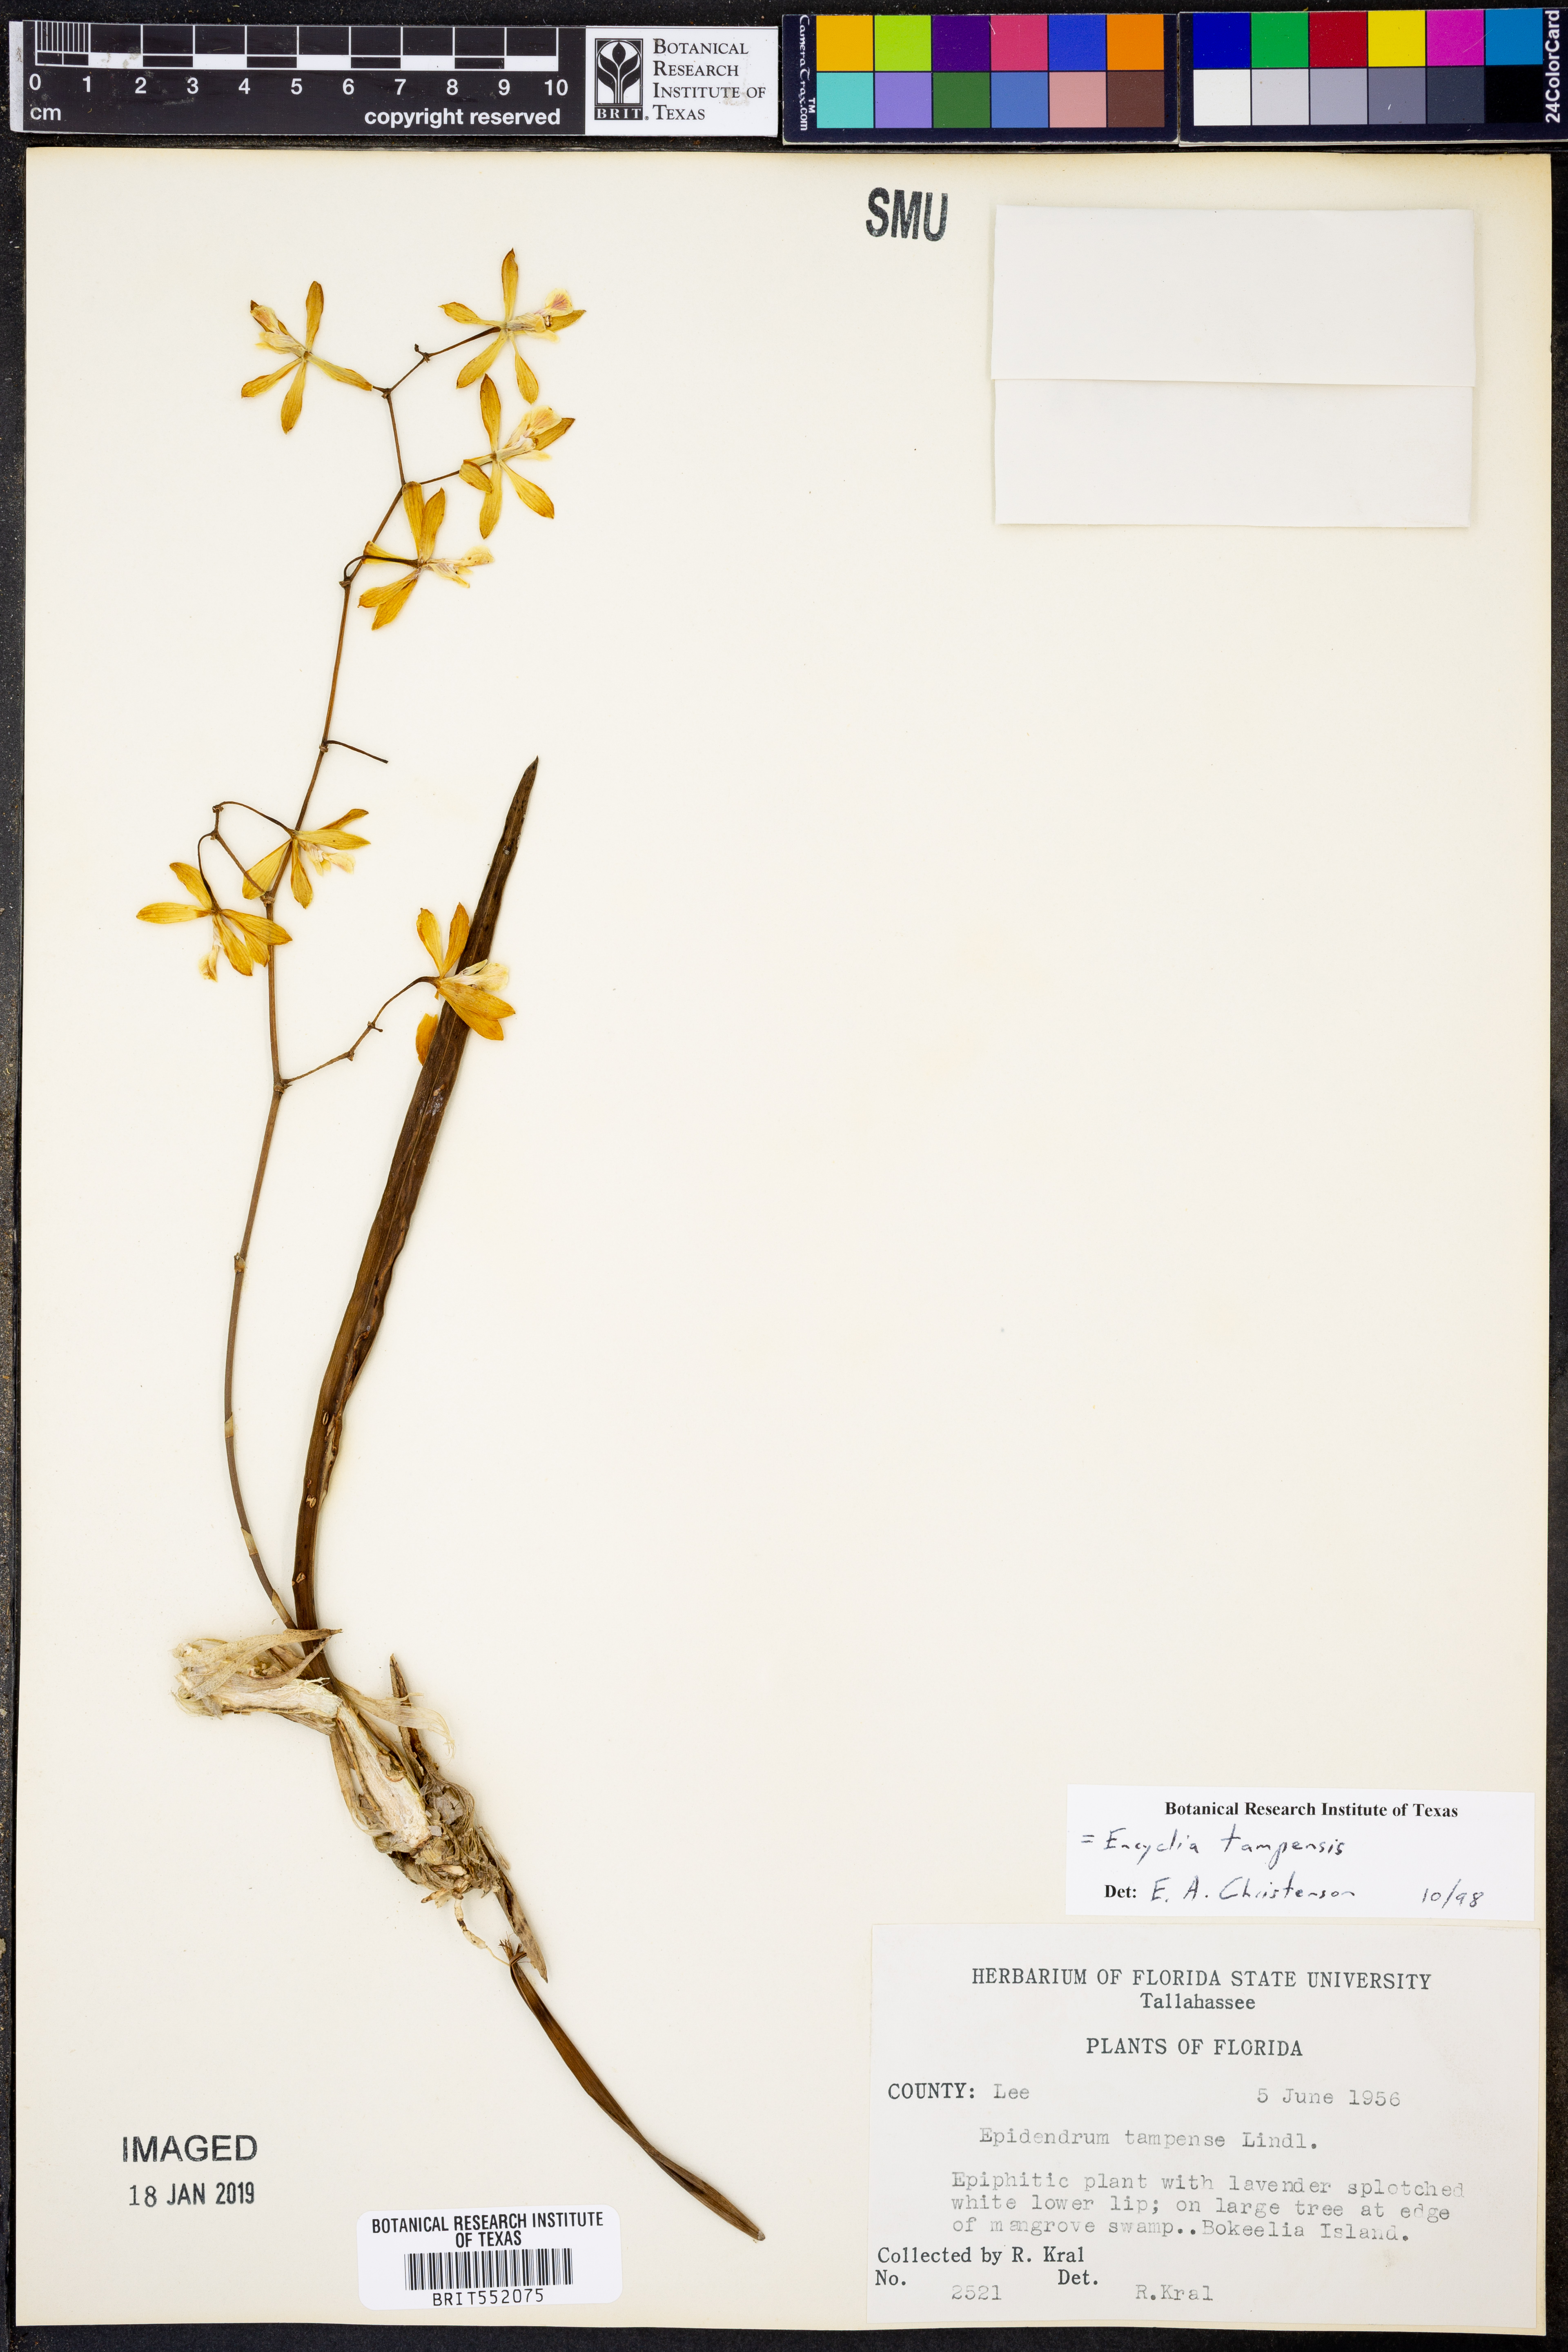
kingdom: Plantae
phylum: Tracheophyta
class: Liliopsida
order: Asparagales
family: Orchidaceae
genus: Encyclia
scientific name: Encyclia tampensis
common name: Florida butterfly orchid
